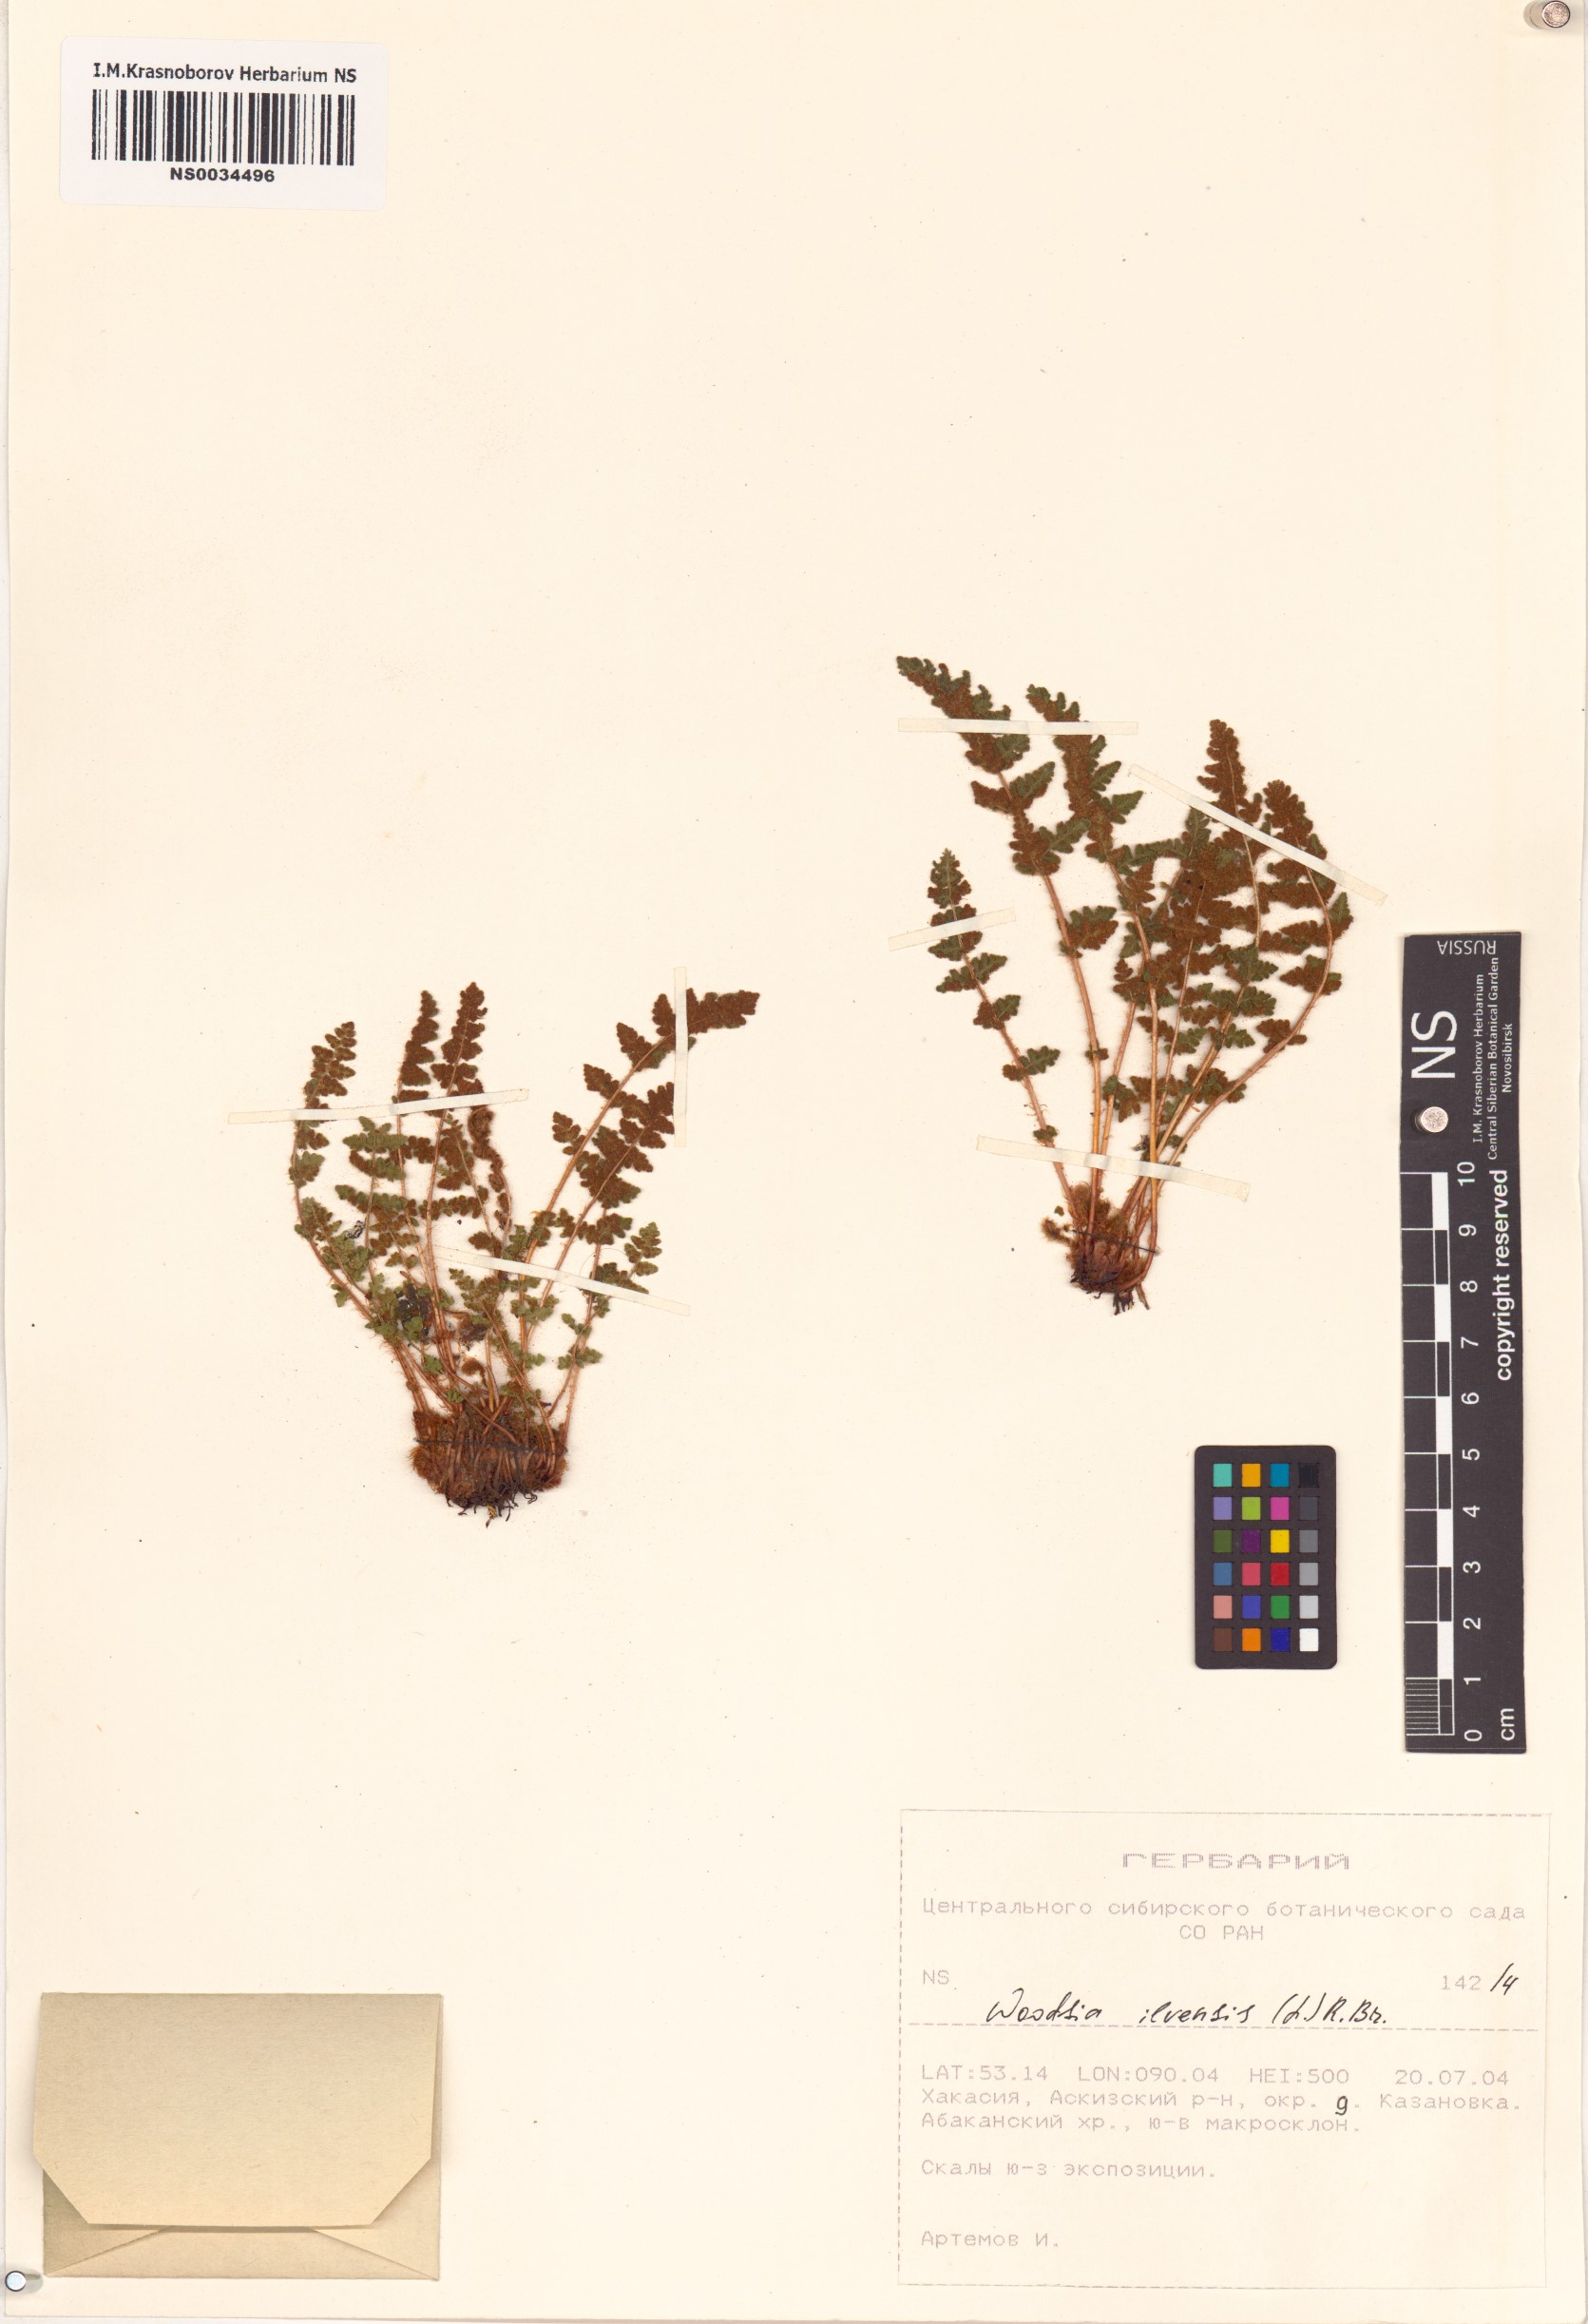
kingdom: Plantae
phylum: Tracheophyta
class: Polypodiopsida
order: Polypodiales
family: Woodsiaceae
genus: Woodsia
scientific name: Woodsia ilvensis
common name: Fragrant woodsia
